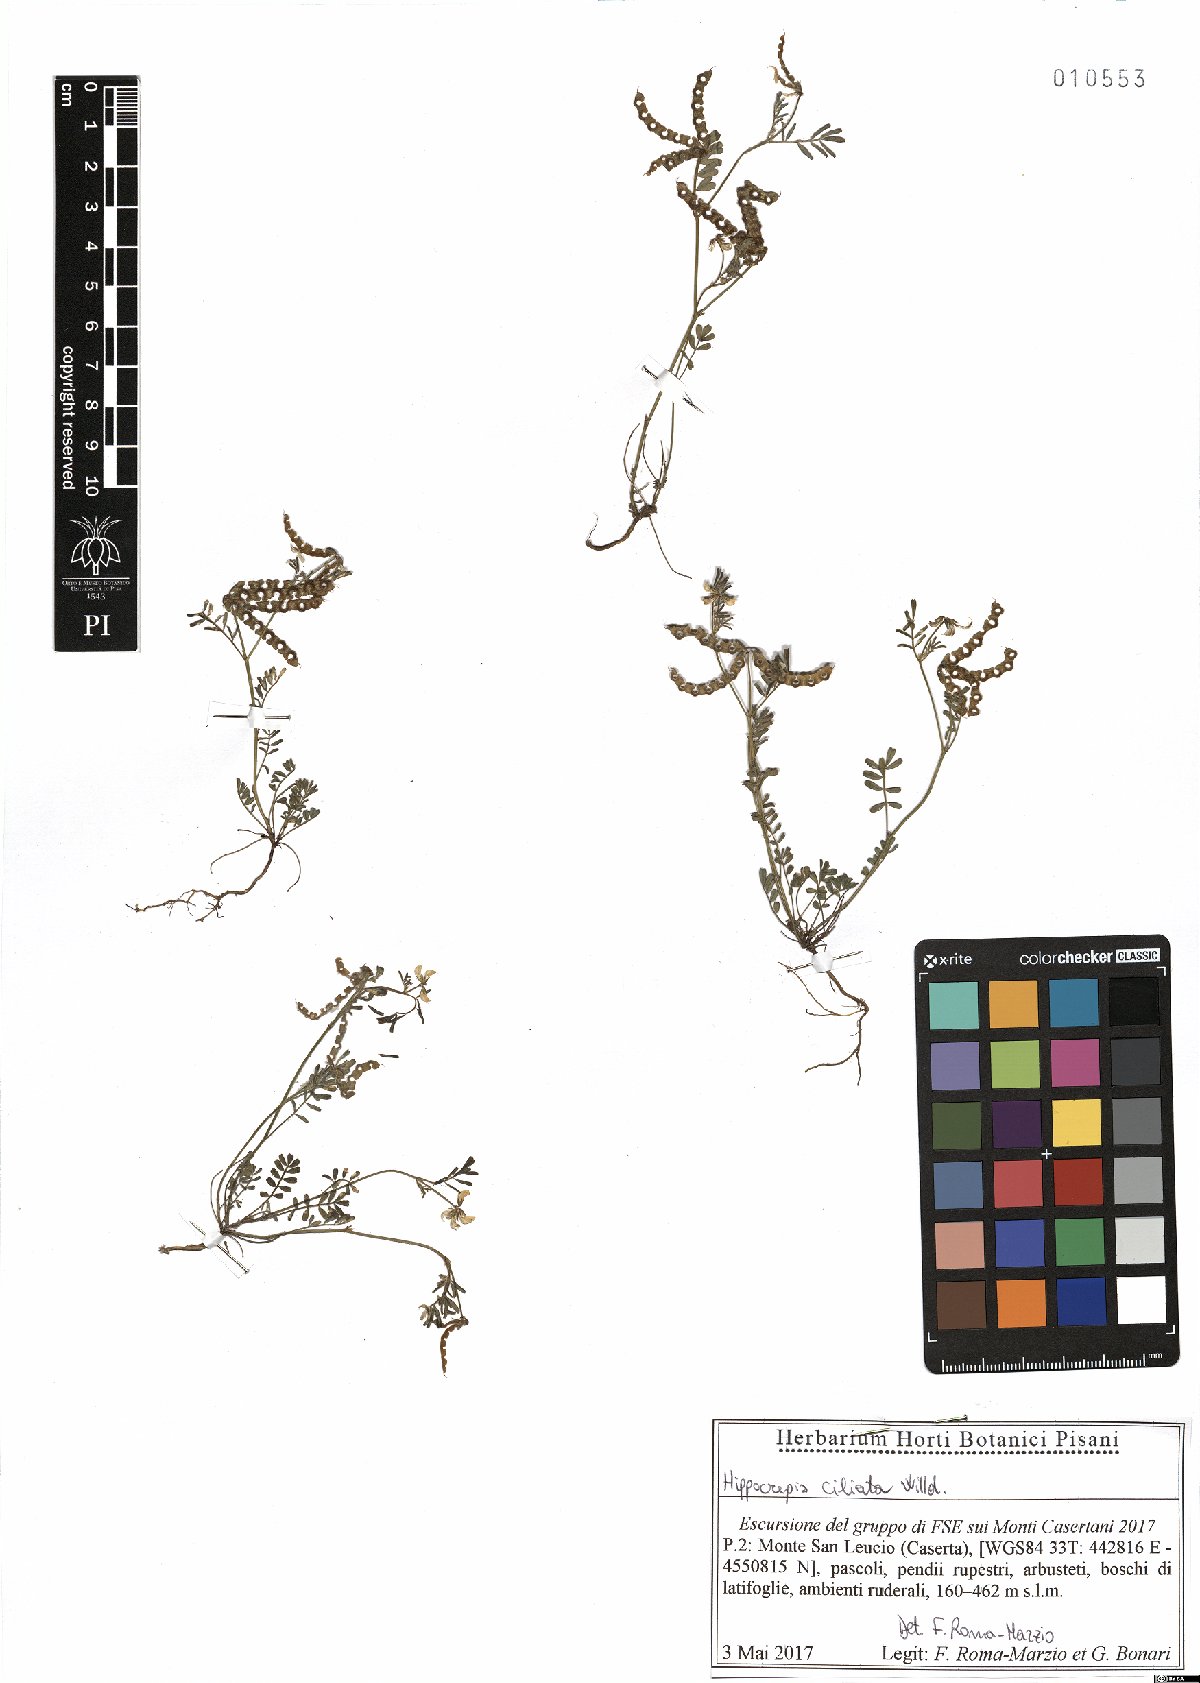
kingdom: Plantae
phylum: Tracheophyta
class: Magnoliopsida
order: Fabales
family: Fabaceae
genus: Hippocrepis
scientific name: Hippocrepis ciliata
